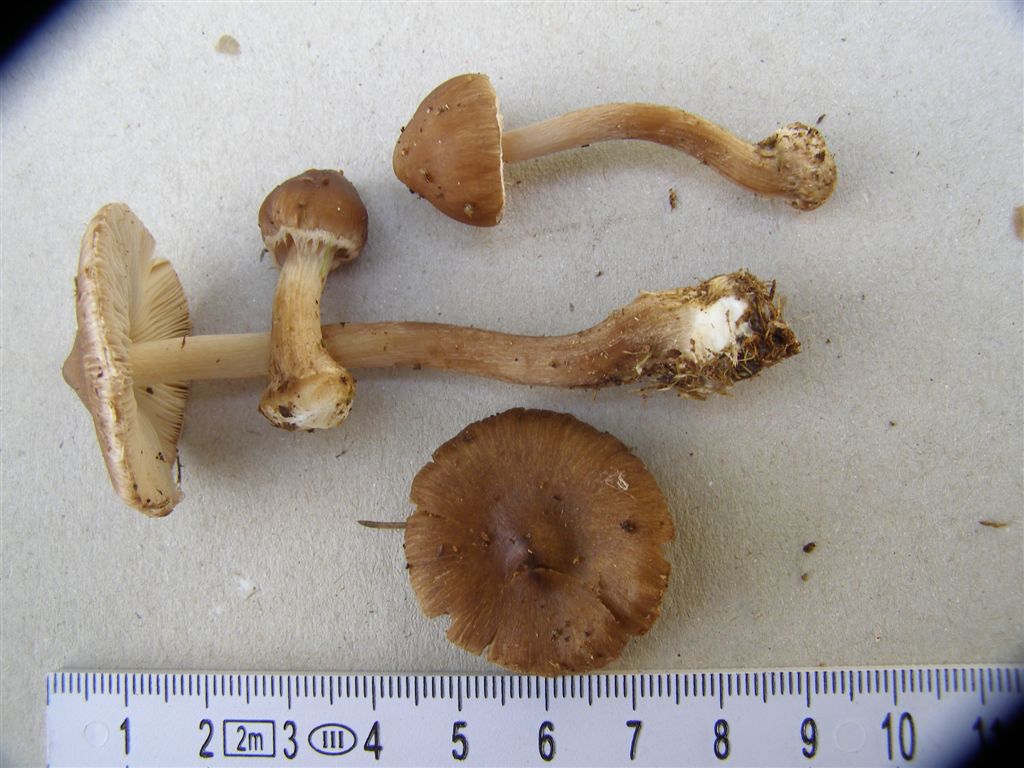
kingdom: Fungi
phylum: Basidiomycota
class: Agaricomycetes
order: Agaricales
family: Inocybaceae
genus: Inocybe
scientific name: Inocybe napipes
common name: roeknoldet trævlhat
